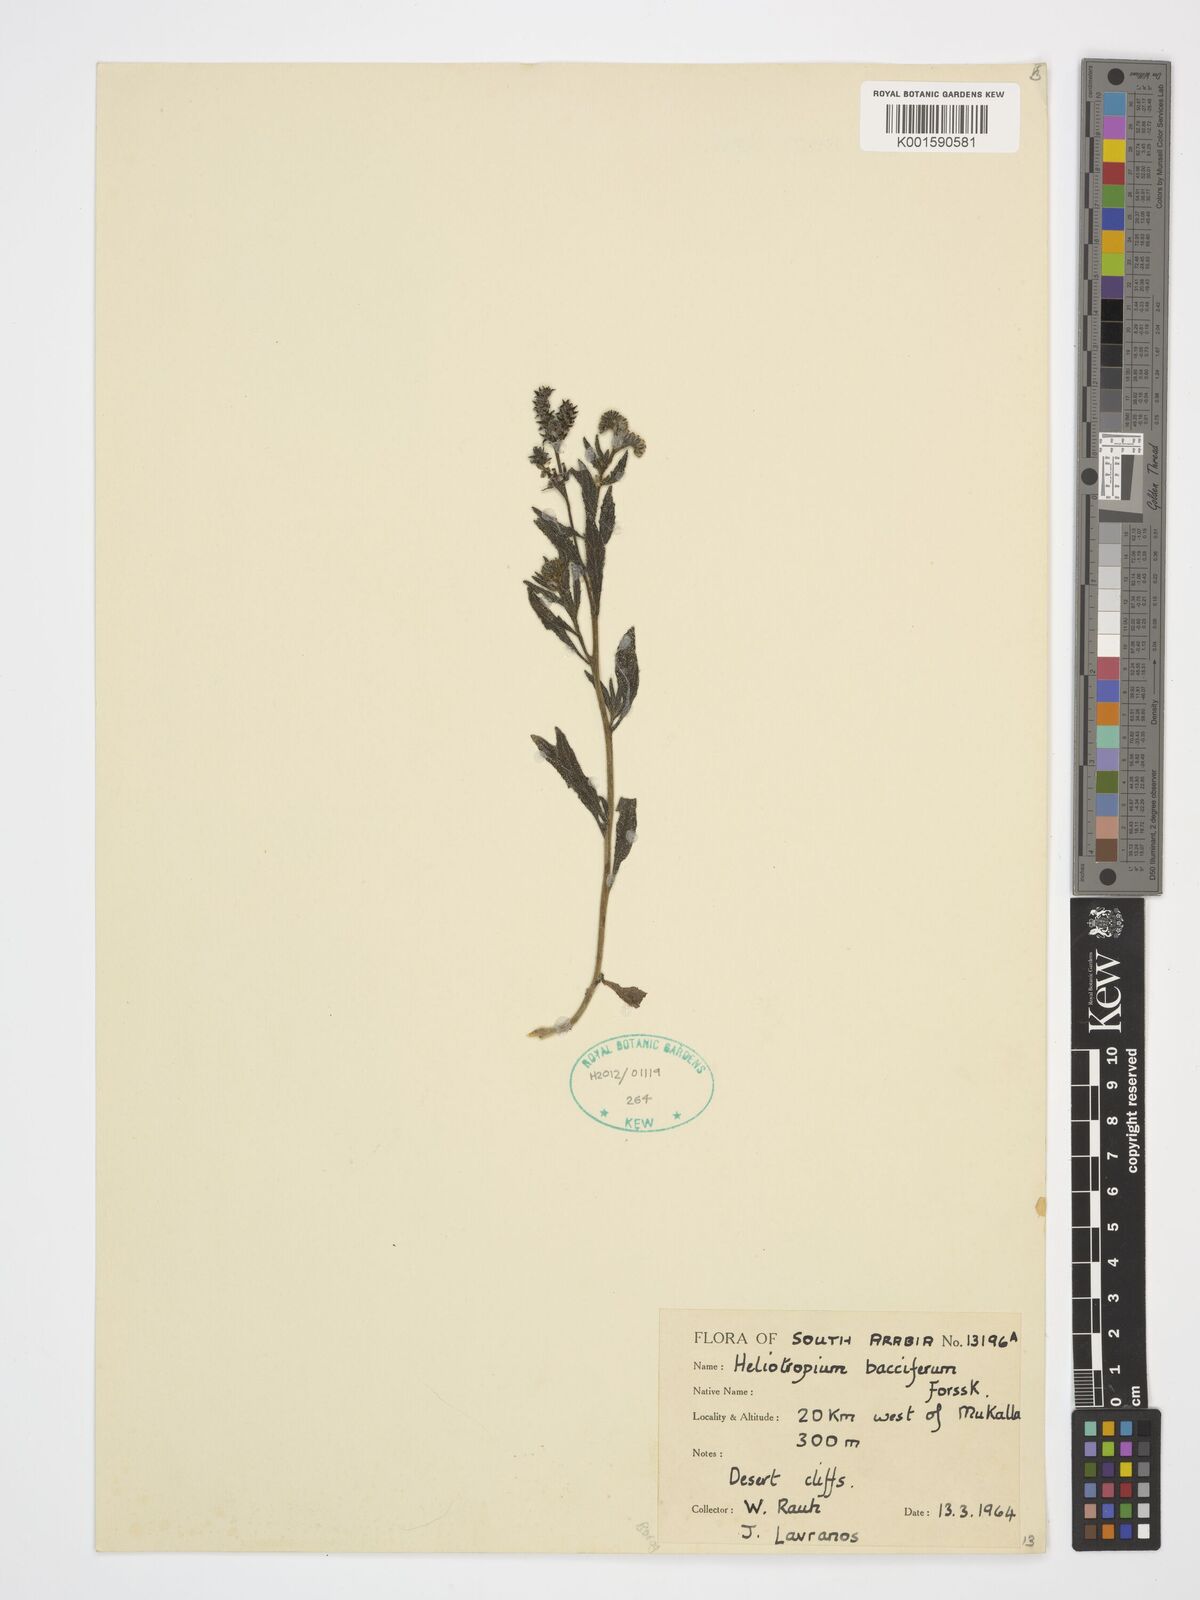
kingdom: Plantae
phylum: Tracheophyta
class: Magnoliopsida
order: Boraginales
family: Heliotropiaceae
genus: Heliotropium
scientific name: Heliotropium bacciferum
